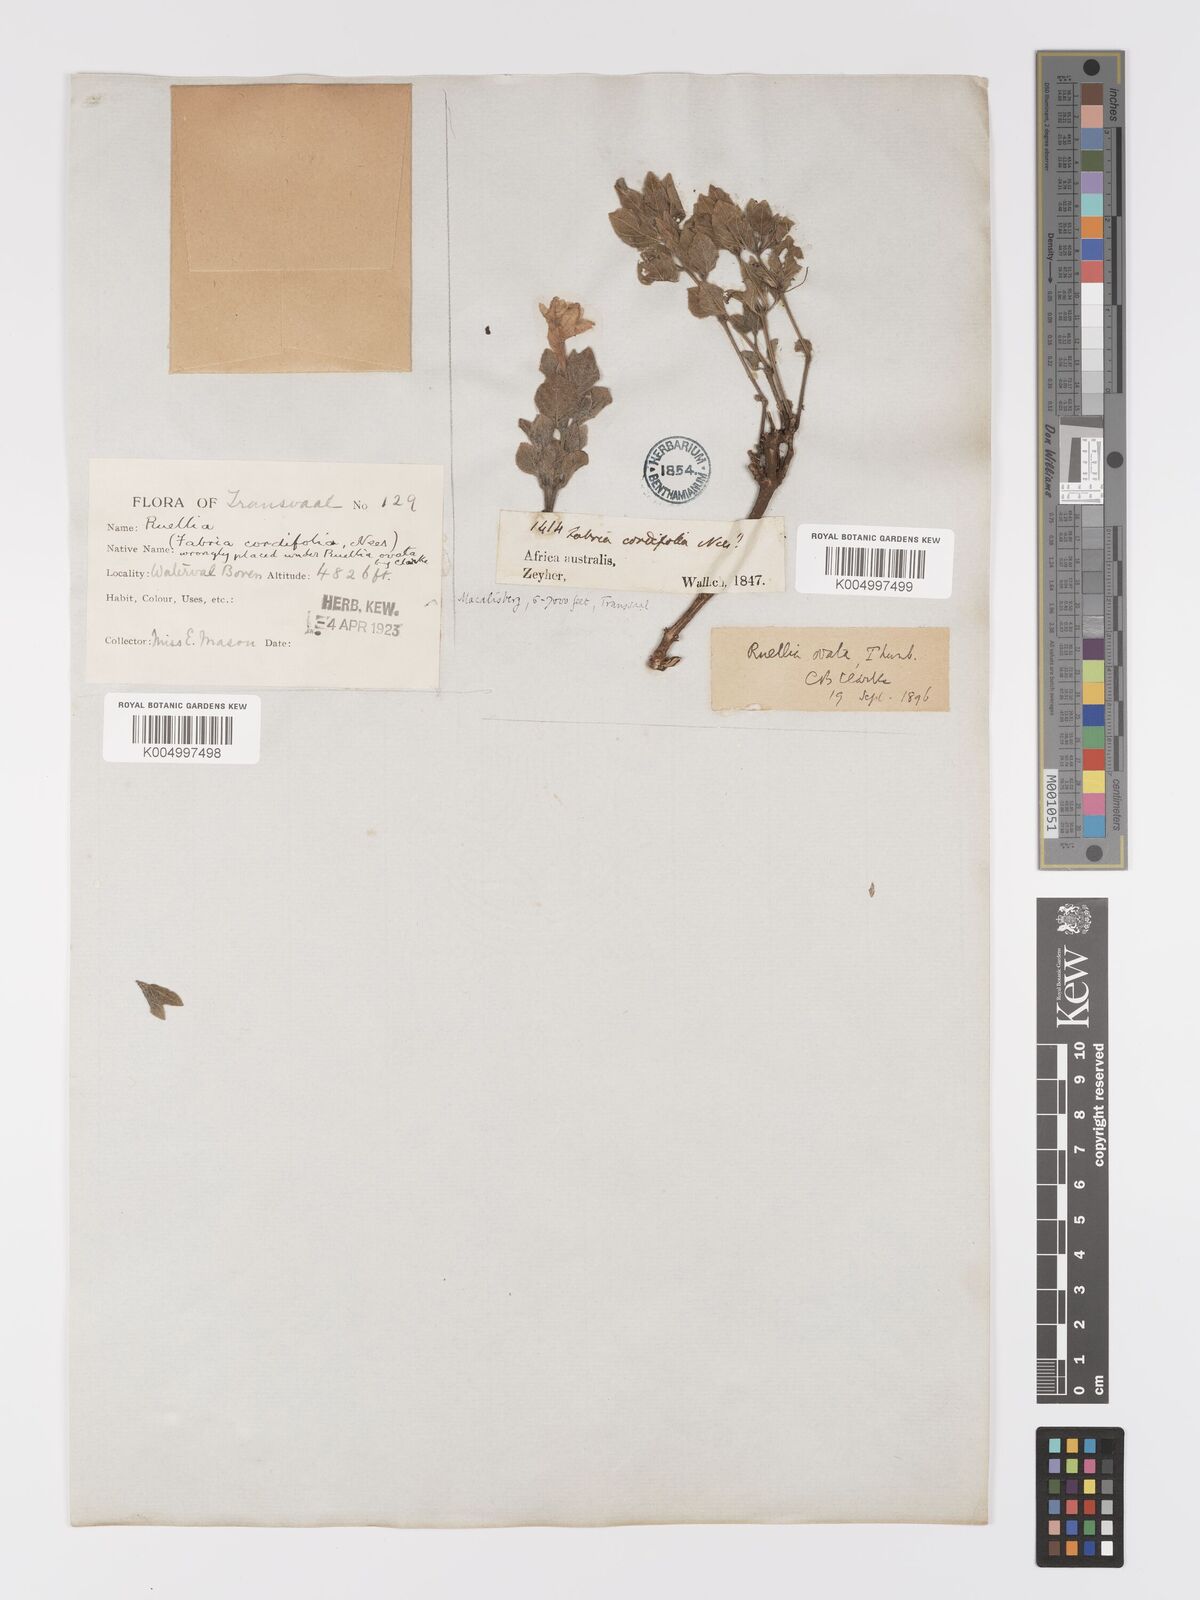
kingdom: Plantae
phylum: Tracheophyta
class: Magnoliopsida
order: Lamiales
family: Acanthaceae
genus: Ruellia
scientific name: Ruellia cordata
